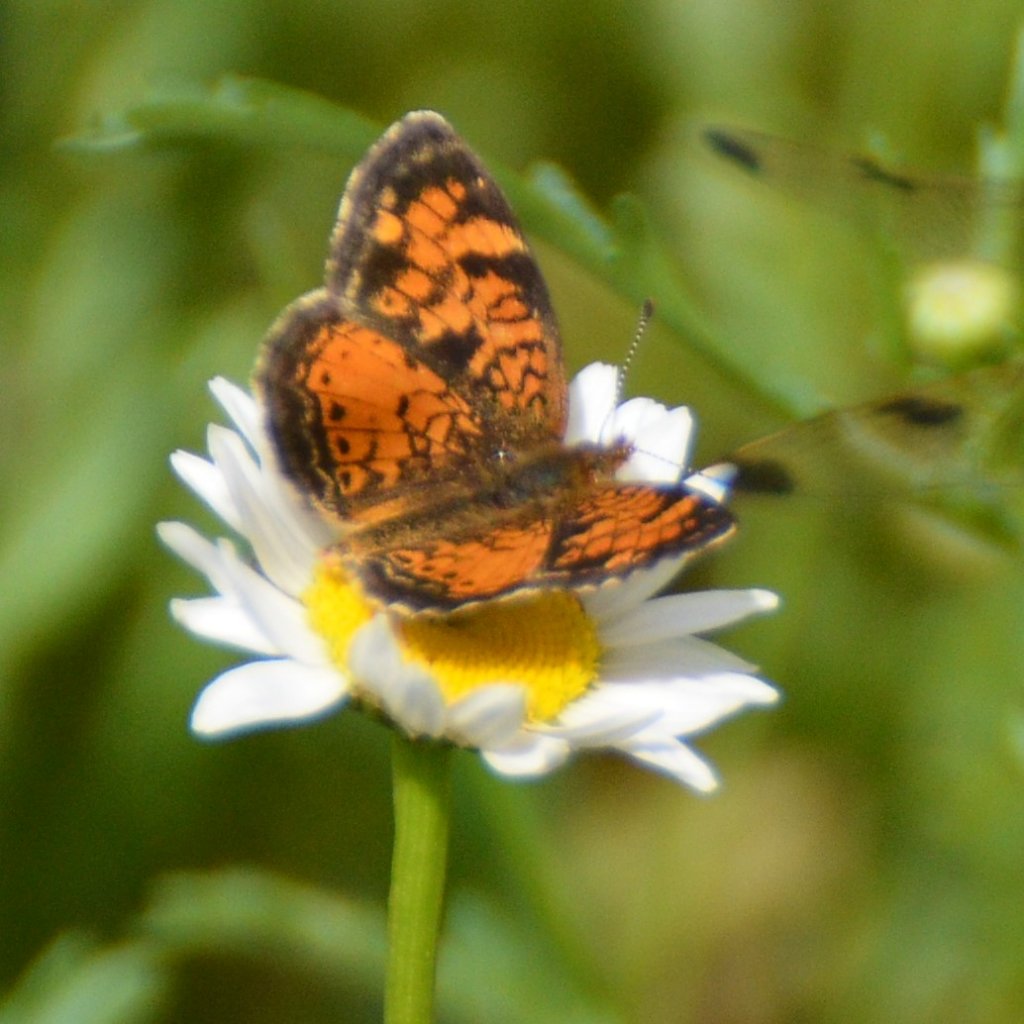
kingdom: Animalia
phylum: Arthropoda
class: Insecta
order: Lepidoptera
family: Nymphalidae
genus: Phyciodes
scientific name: Phyciodes tharos
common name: Northern Crescent
